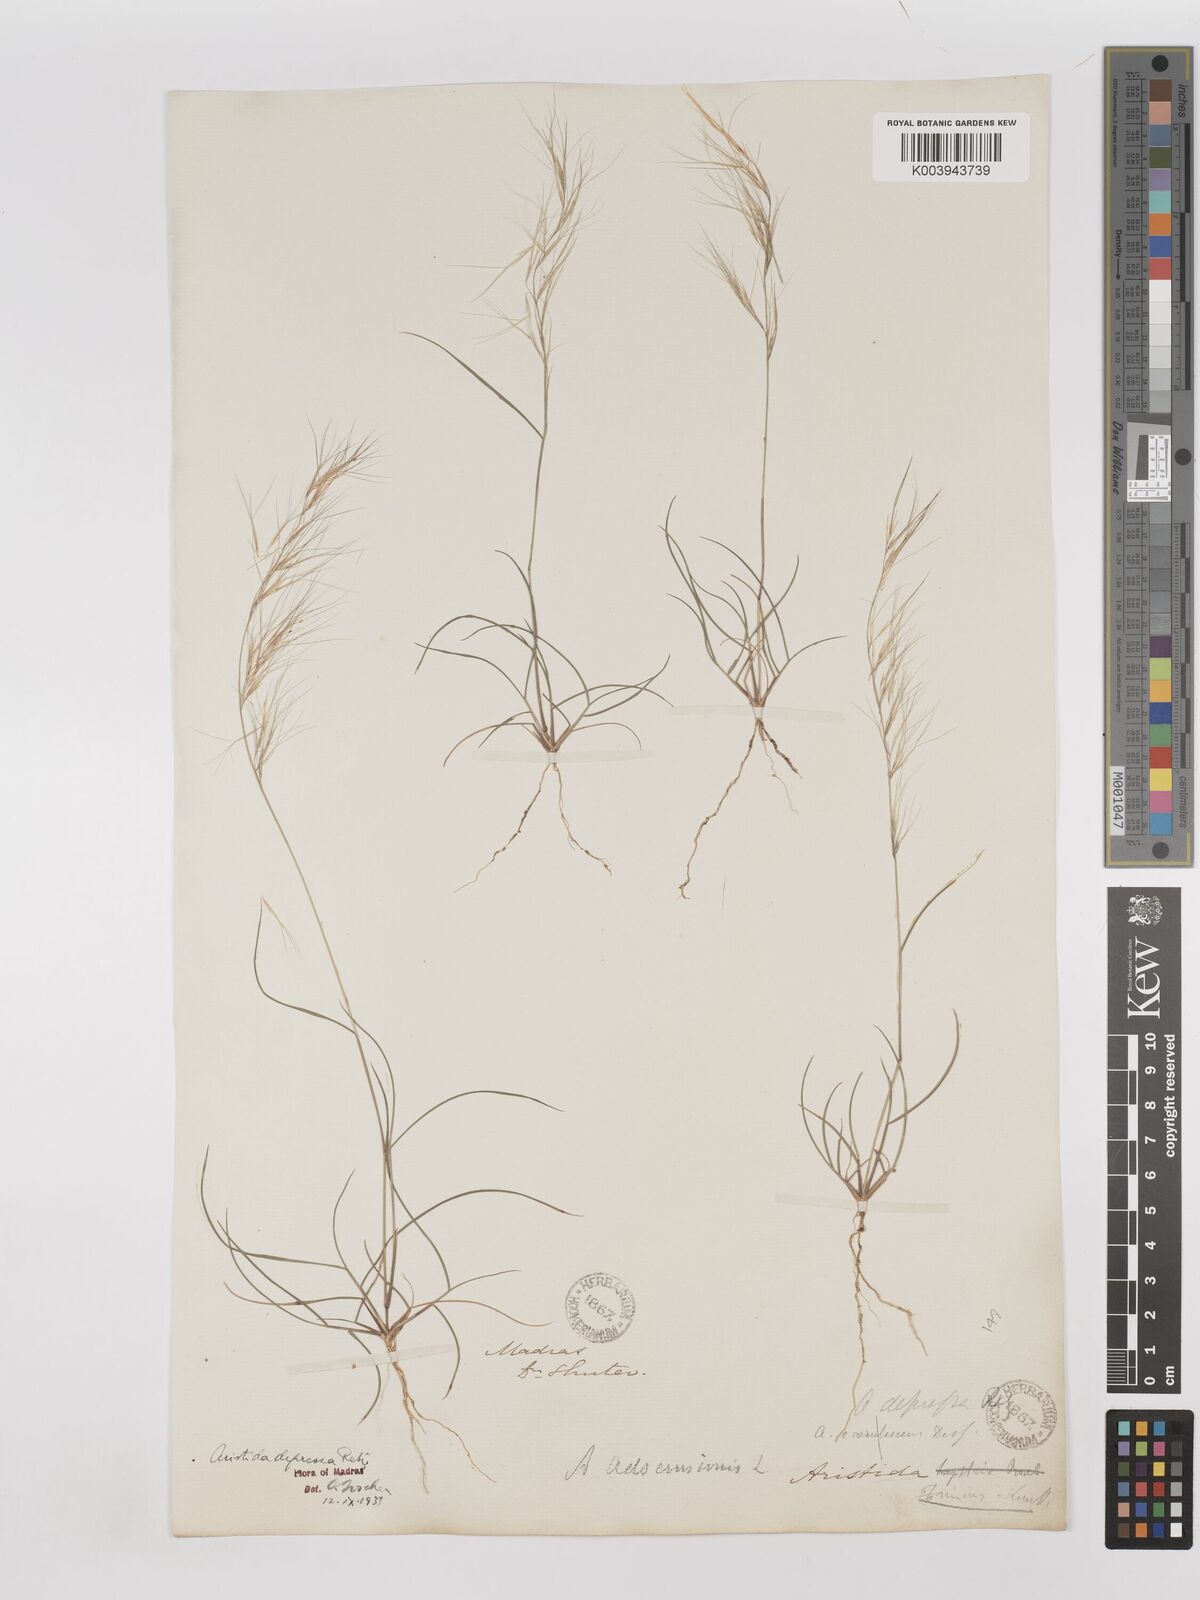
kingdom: Plantae
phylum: Tracheophyta
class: Liliopsida
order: Poales
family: Poaceae
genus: Aristida
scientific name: Aristida adscensionis
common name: Sixweeks threeawn
